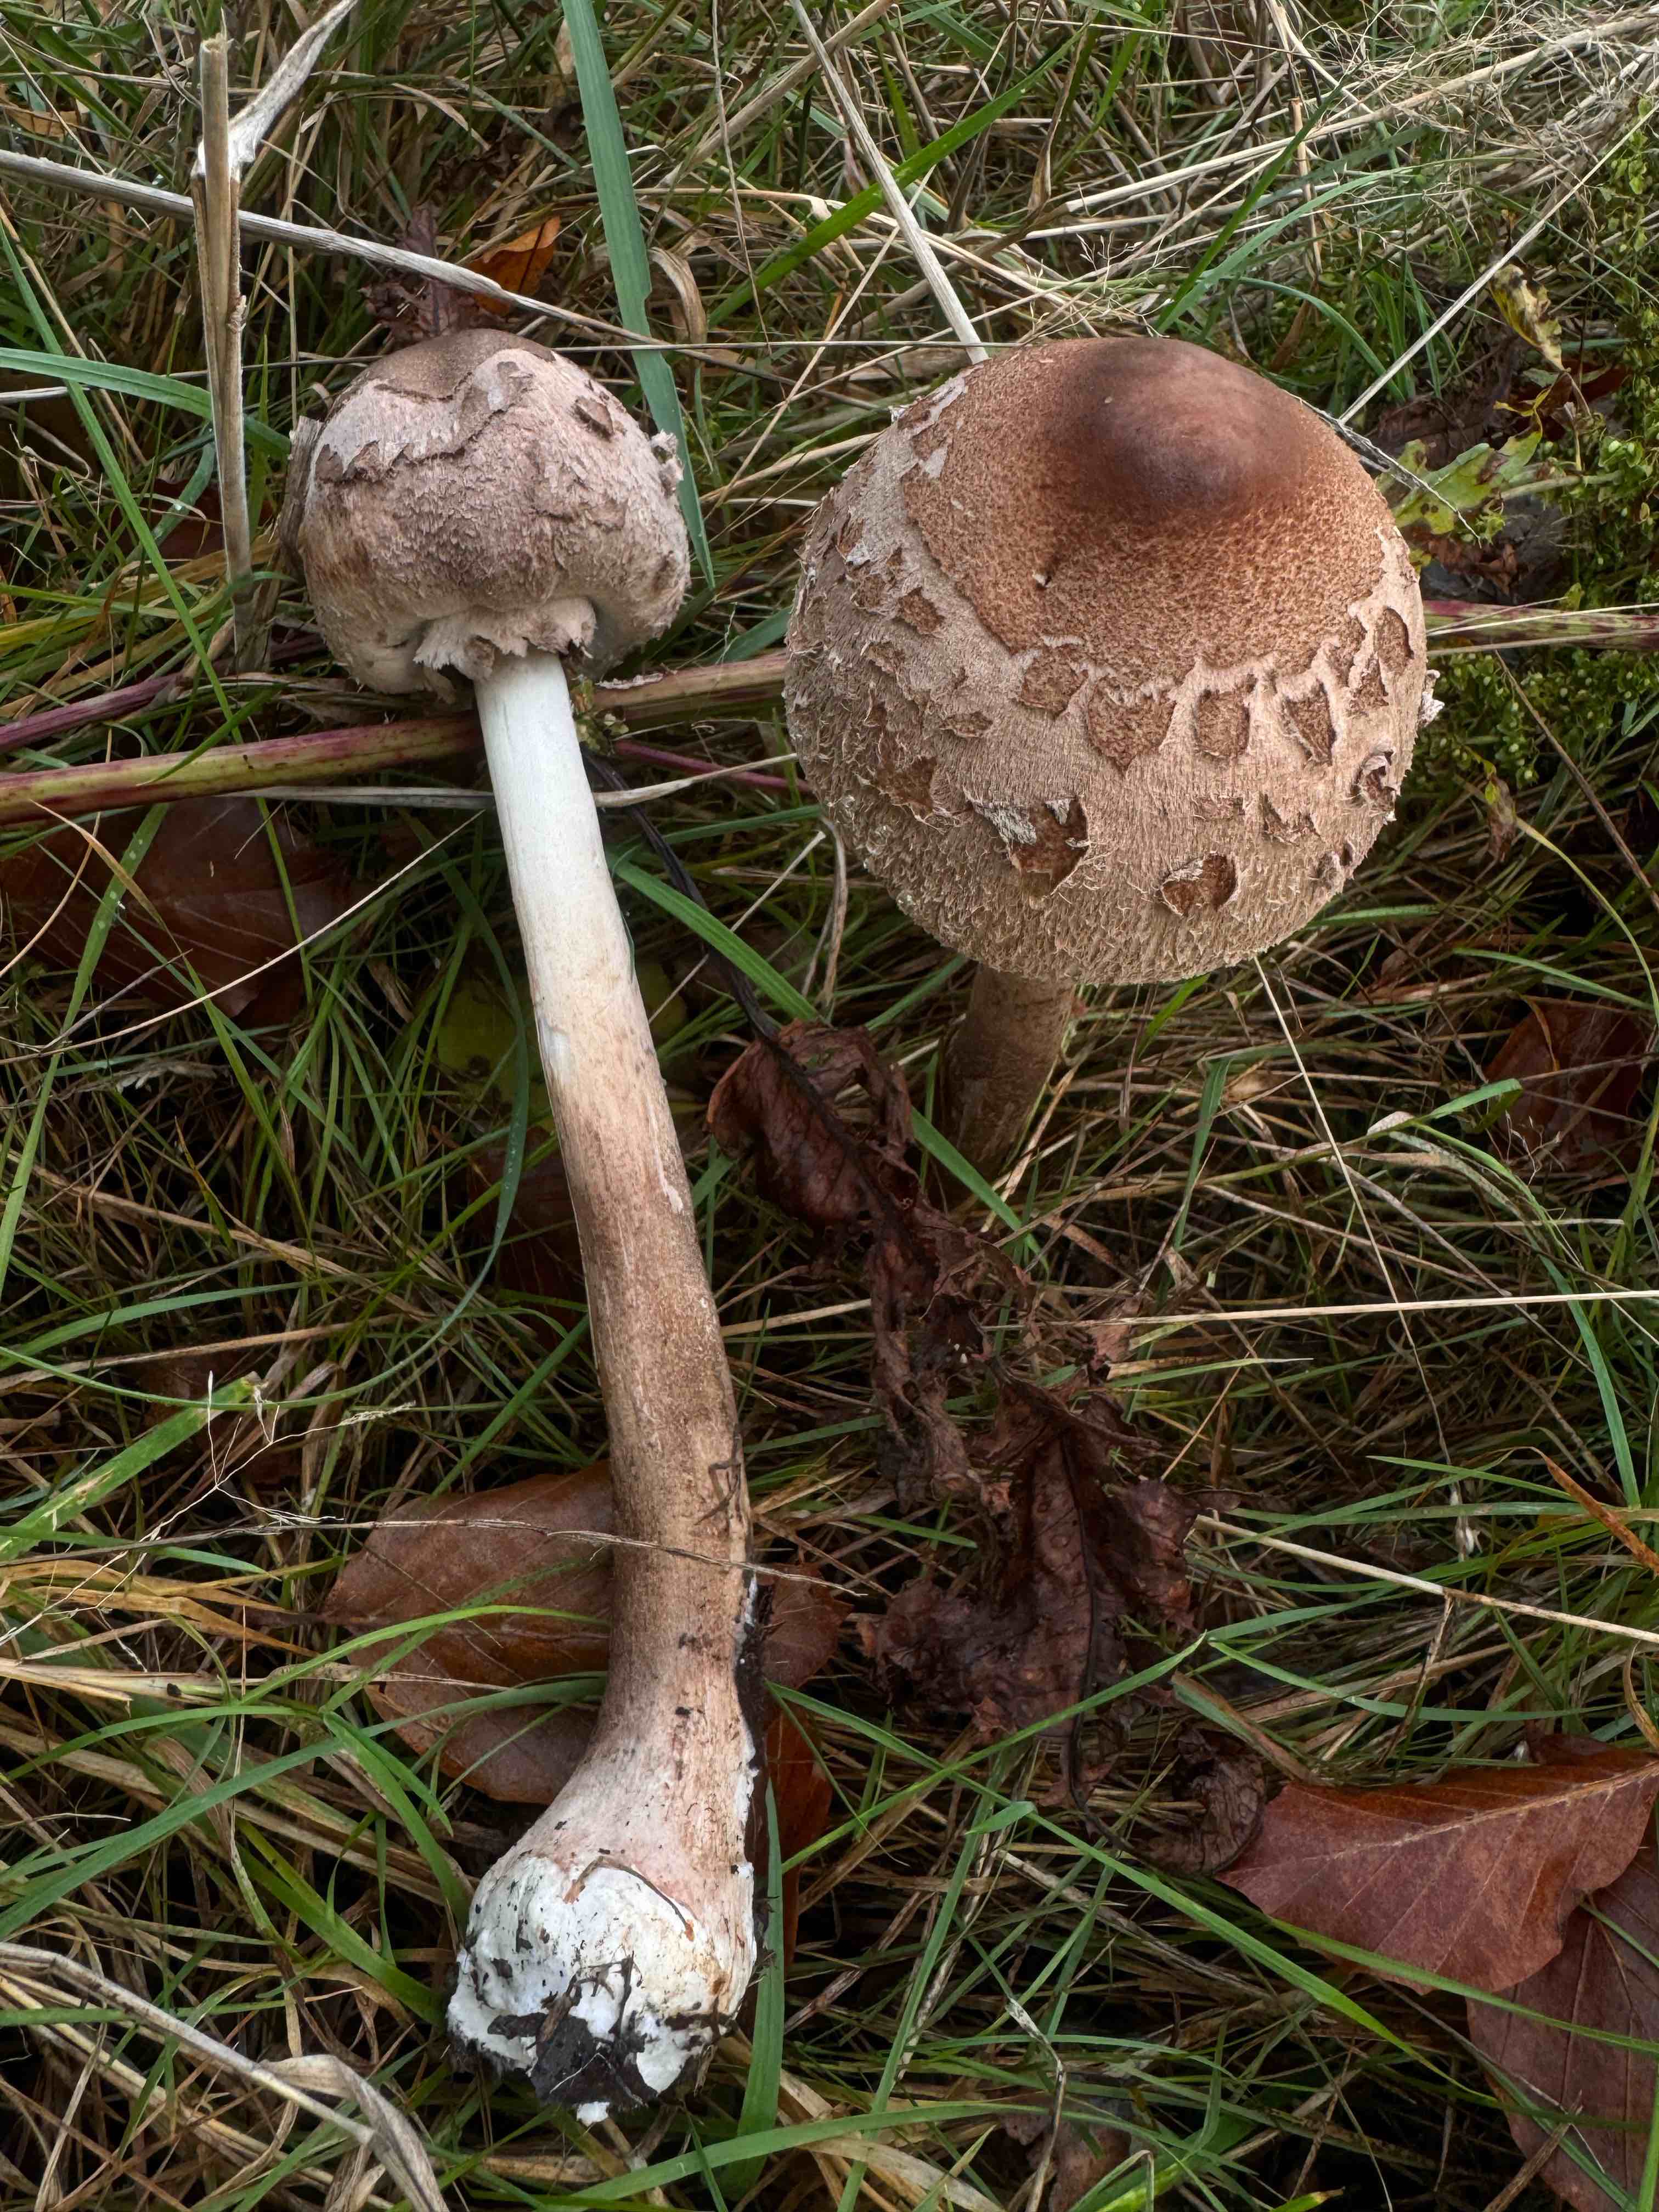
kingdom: Fungi
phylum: Basidiomycota
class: Agaricomycetes
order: Agaricales
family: Agaricaceae
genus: Macrolepiota
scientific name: Macrolepiota mastoidea
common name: puklet kæmpeparasolhat
